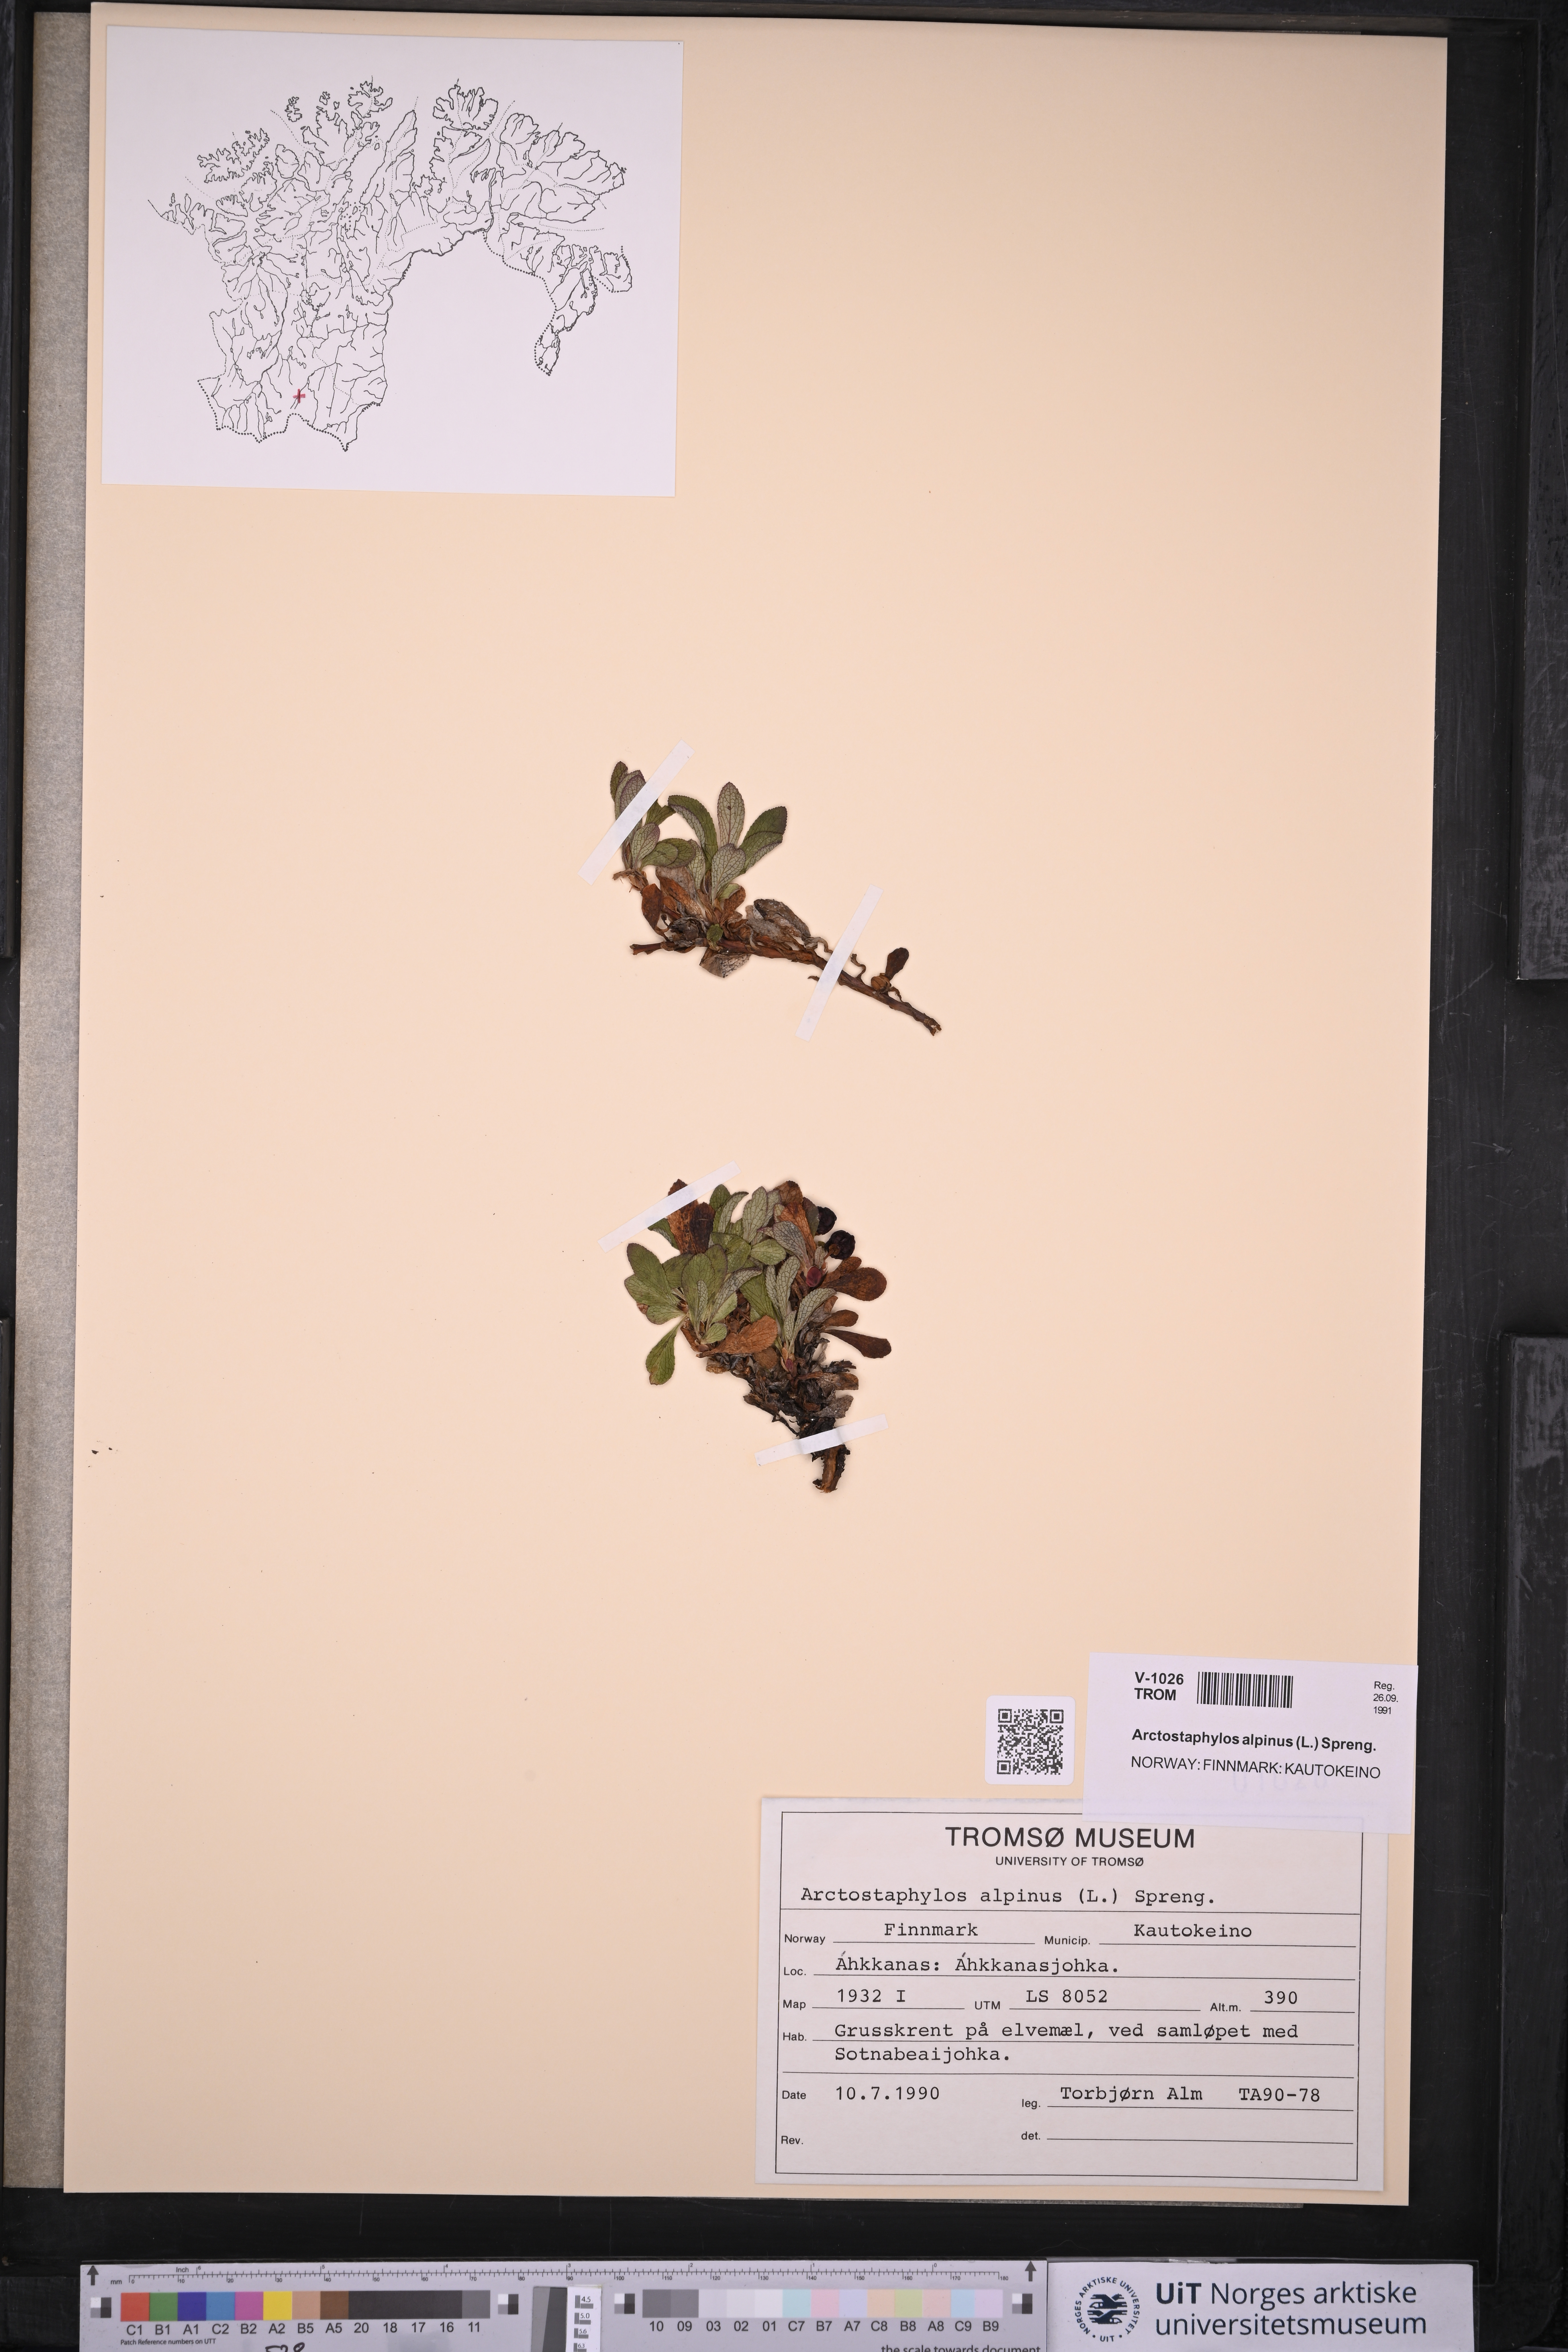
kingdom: Plantae
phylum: Tracheophyta
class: Magnoliopsida
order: Ericales
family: Ericaceae
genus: Arctostaphylos
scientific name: Arctostaphylos alpinus
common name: Alpine bearberry
